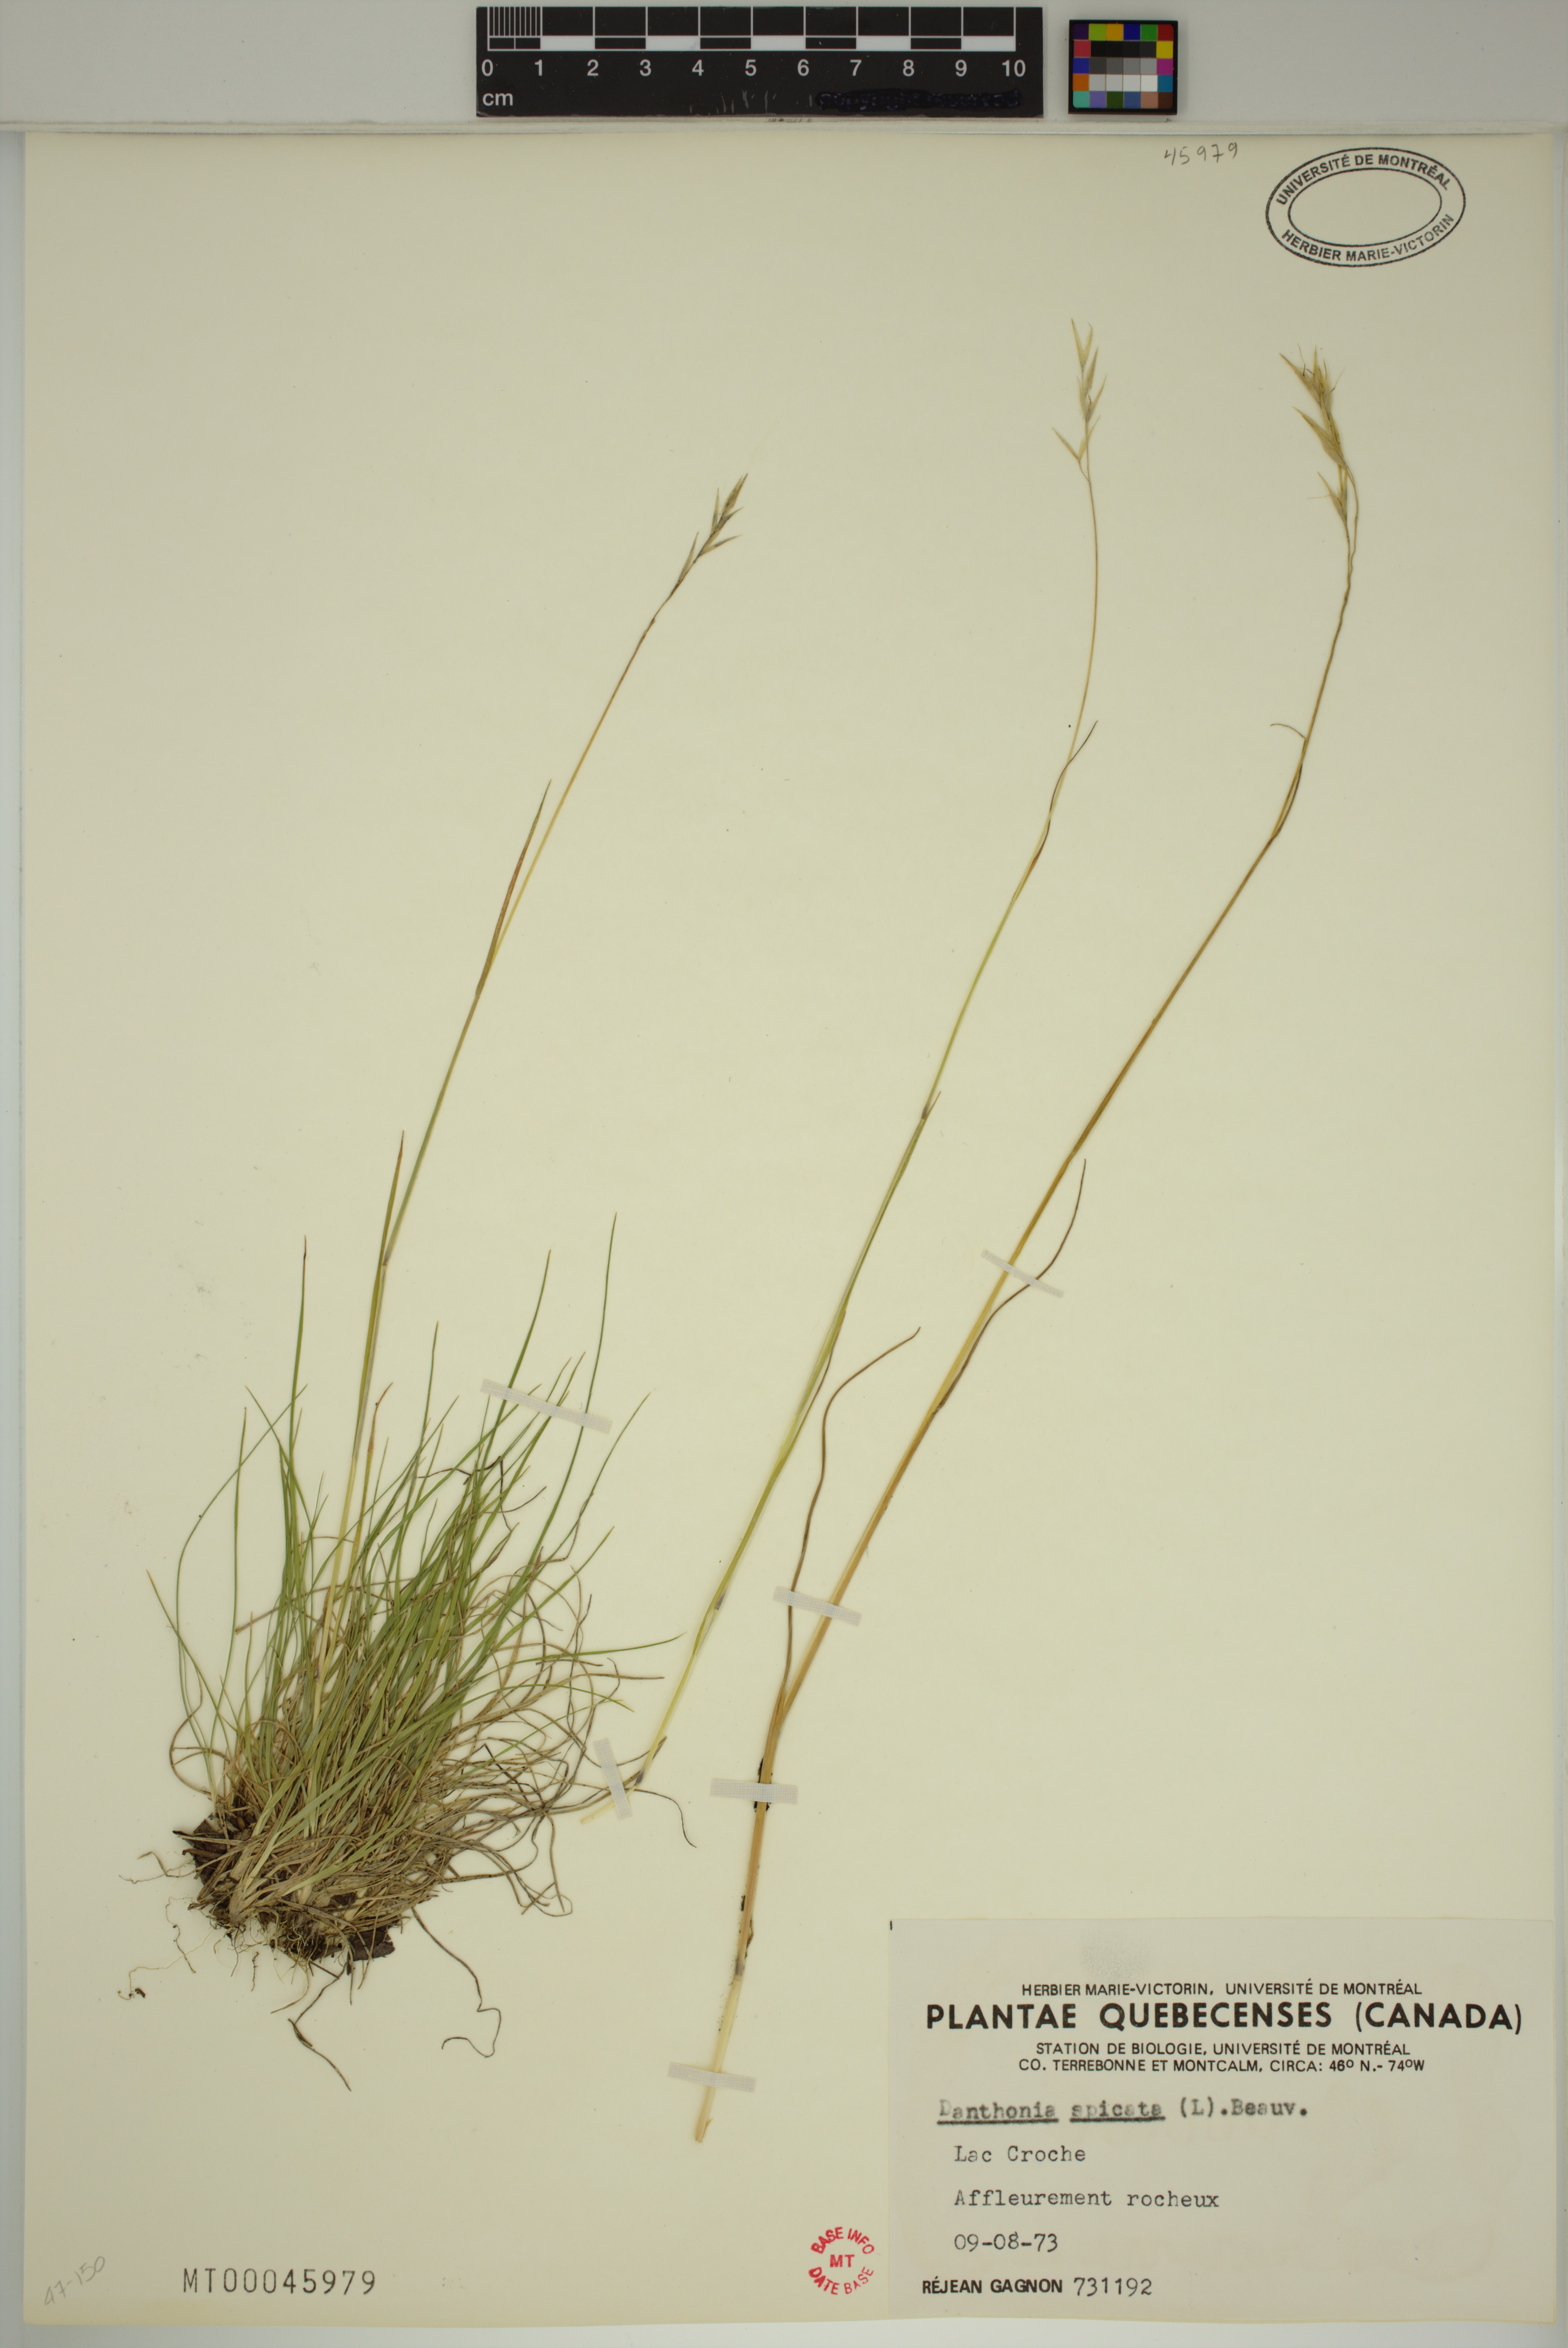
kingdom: Plantae
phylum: Tracheophyta
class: Liliopsida
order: Poales
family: Poaceae
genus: Danthonia
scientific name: Danthonia spicata
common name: Common wild oatgrass
